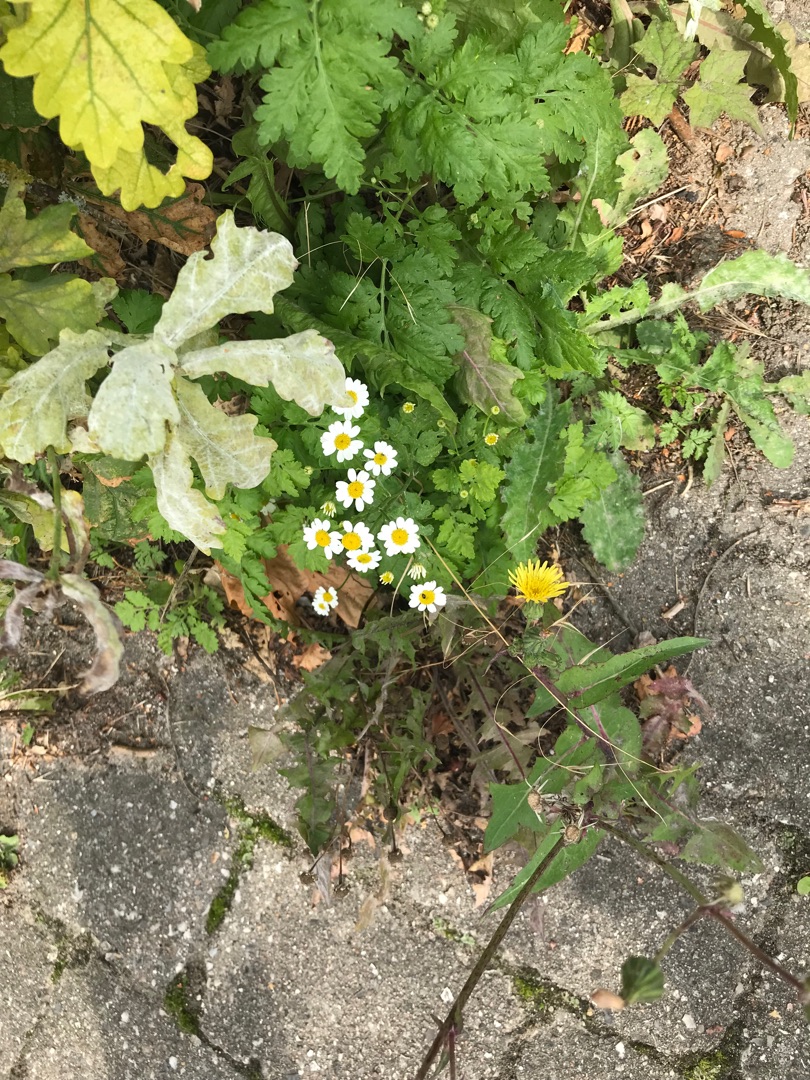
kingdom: Plantae
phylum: Tracheophyta
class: Magnoliopsida
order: Asterales
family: Asteraceae
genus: Tanacetum
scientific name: Tanacetum parthenium
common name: Matrem
